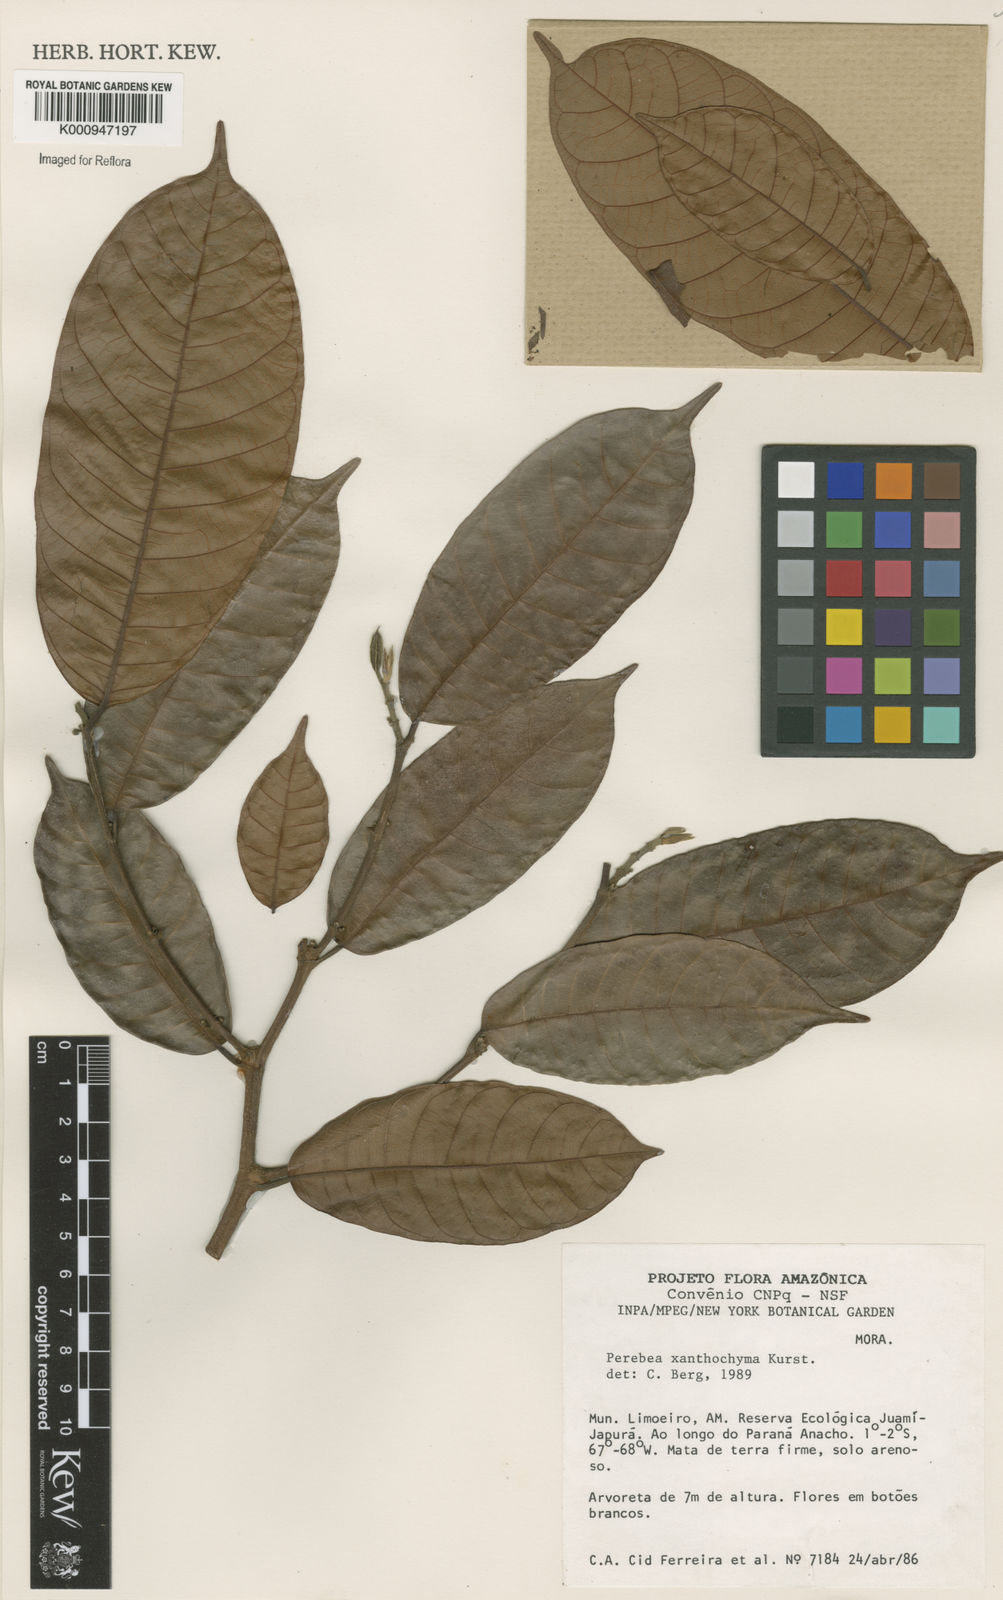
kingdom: Plantae
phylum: Tracheophyta
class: Magnoliopsida
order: Rosales
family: Moraceae
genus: Perebea
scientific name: Perebea xanthochyma
